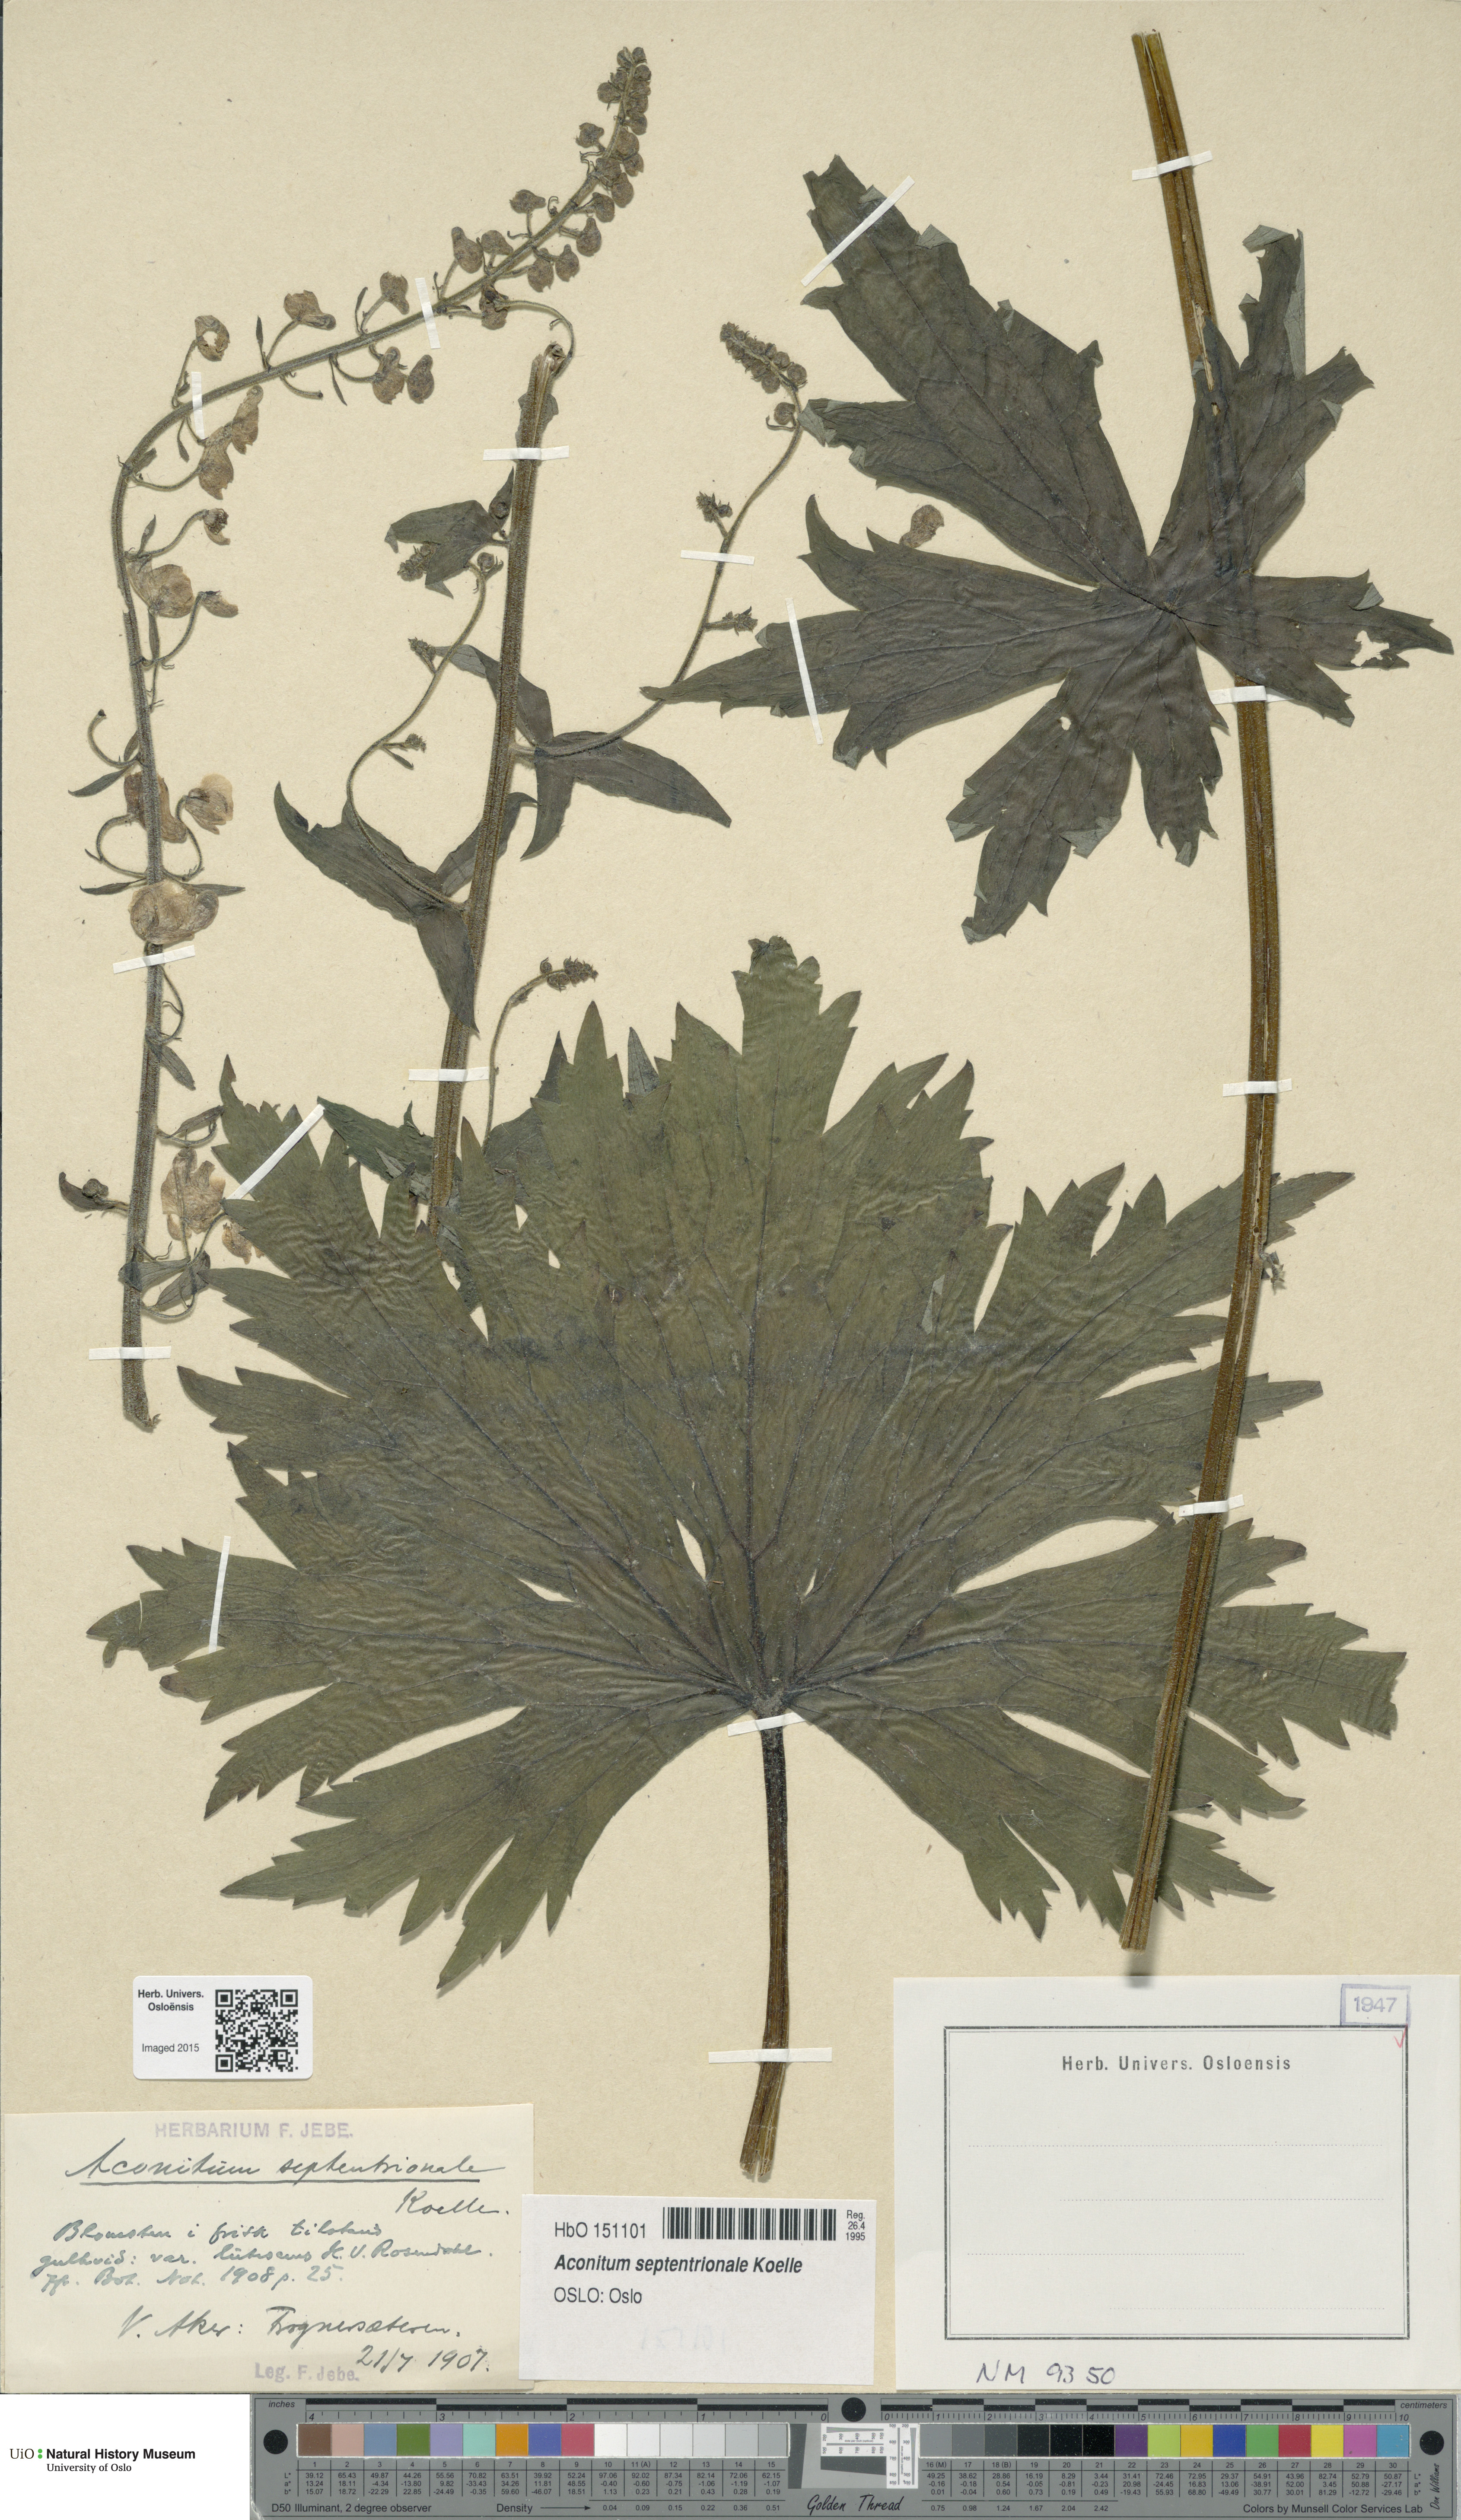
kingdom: Plantae
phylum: Tracheophyta
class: Magnoliopsida
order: Ranunculales
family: Ranunculaceae
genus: Aconitum
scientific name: Aconitum septentrionale
